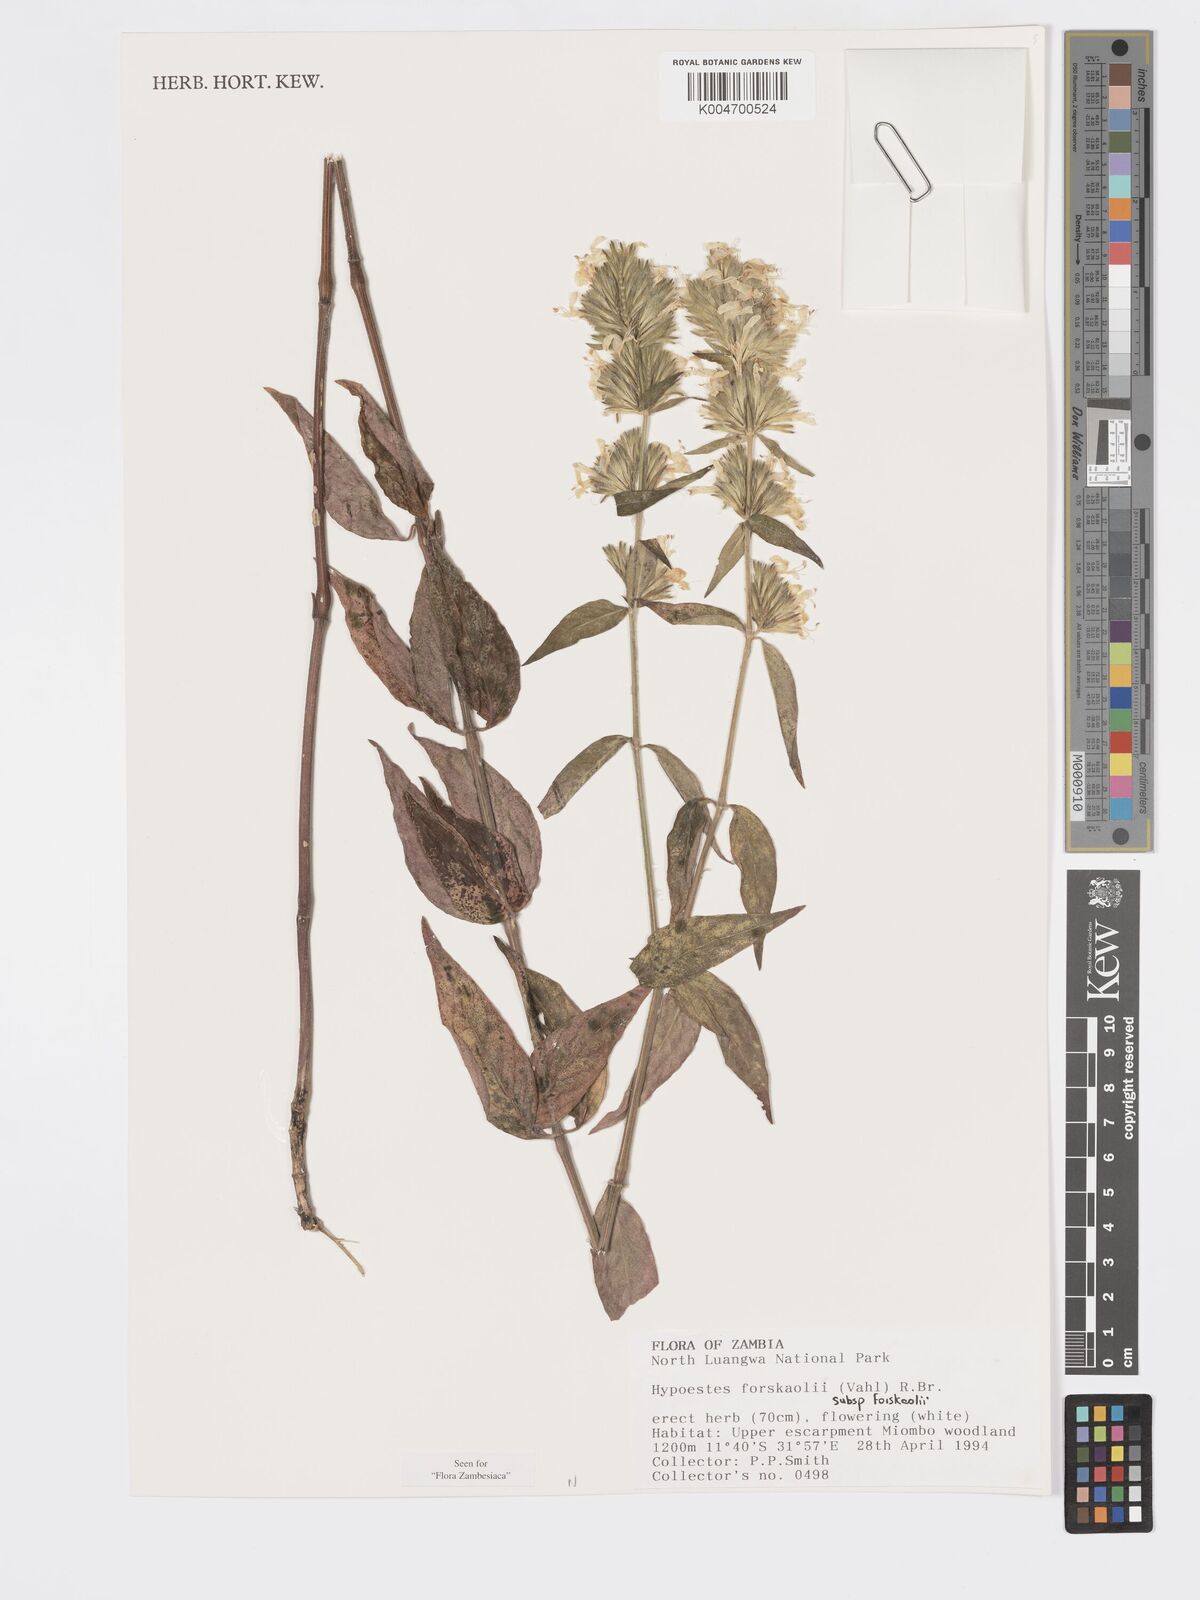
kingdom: Plantae
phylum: Tracheophyta
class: Magnoliopsida
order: Lamiales
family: Acanthaceae
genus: Hypoestes
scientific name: Hypoestes forskaolii
